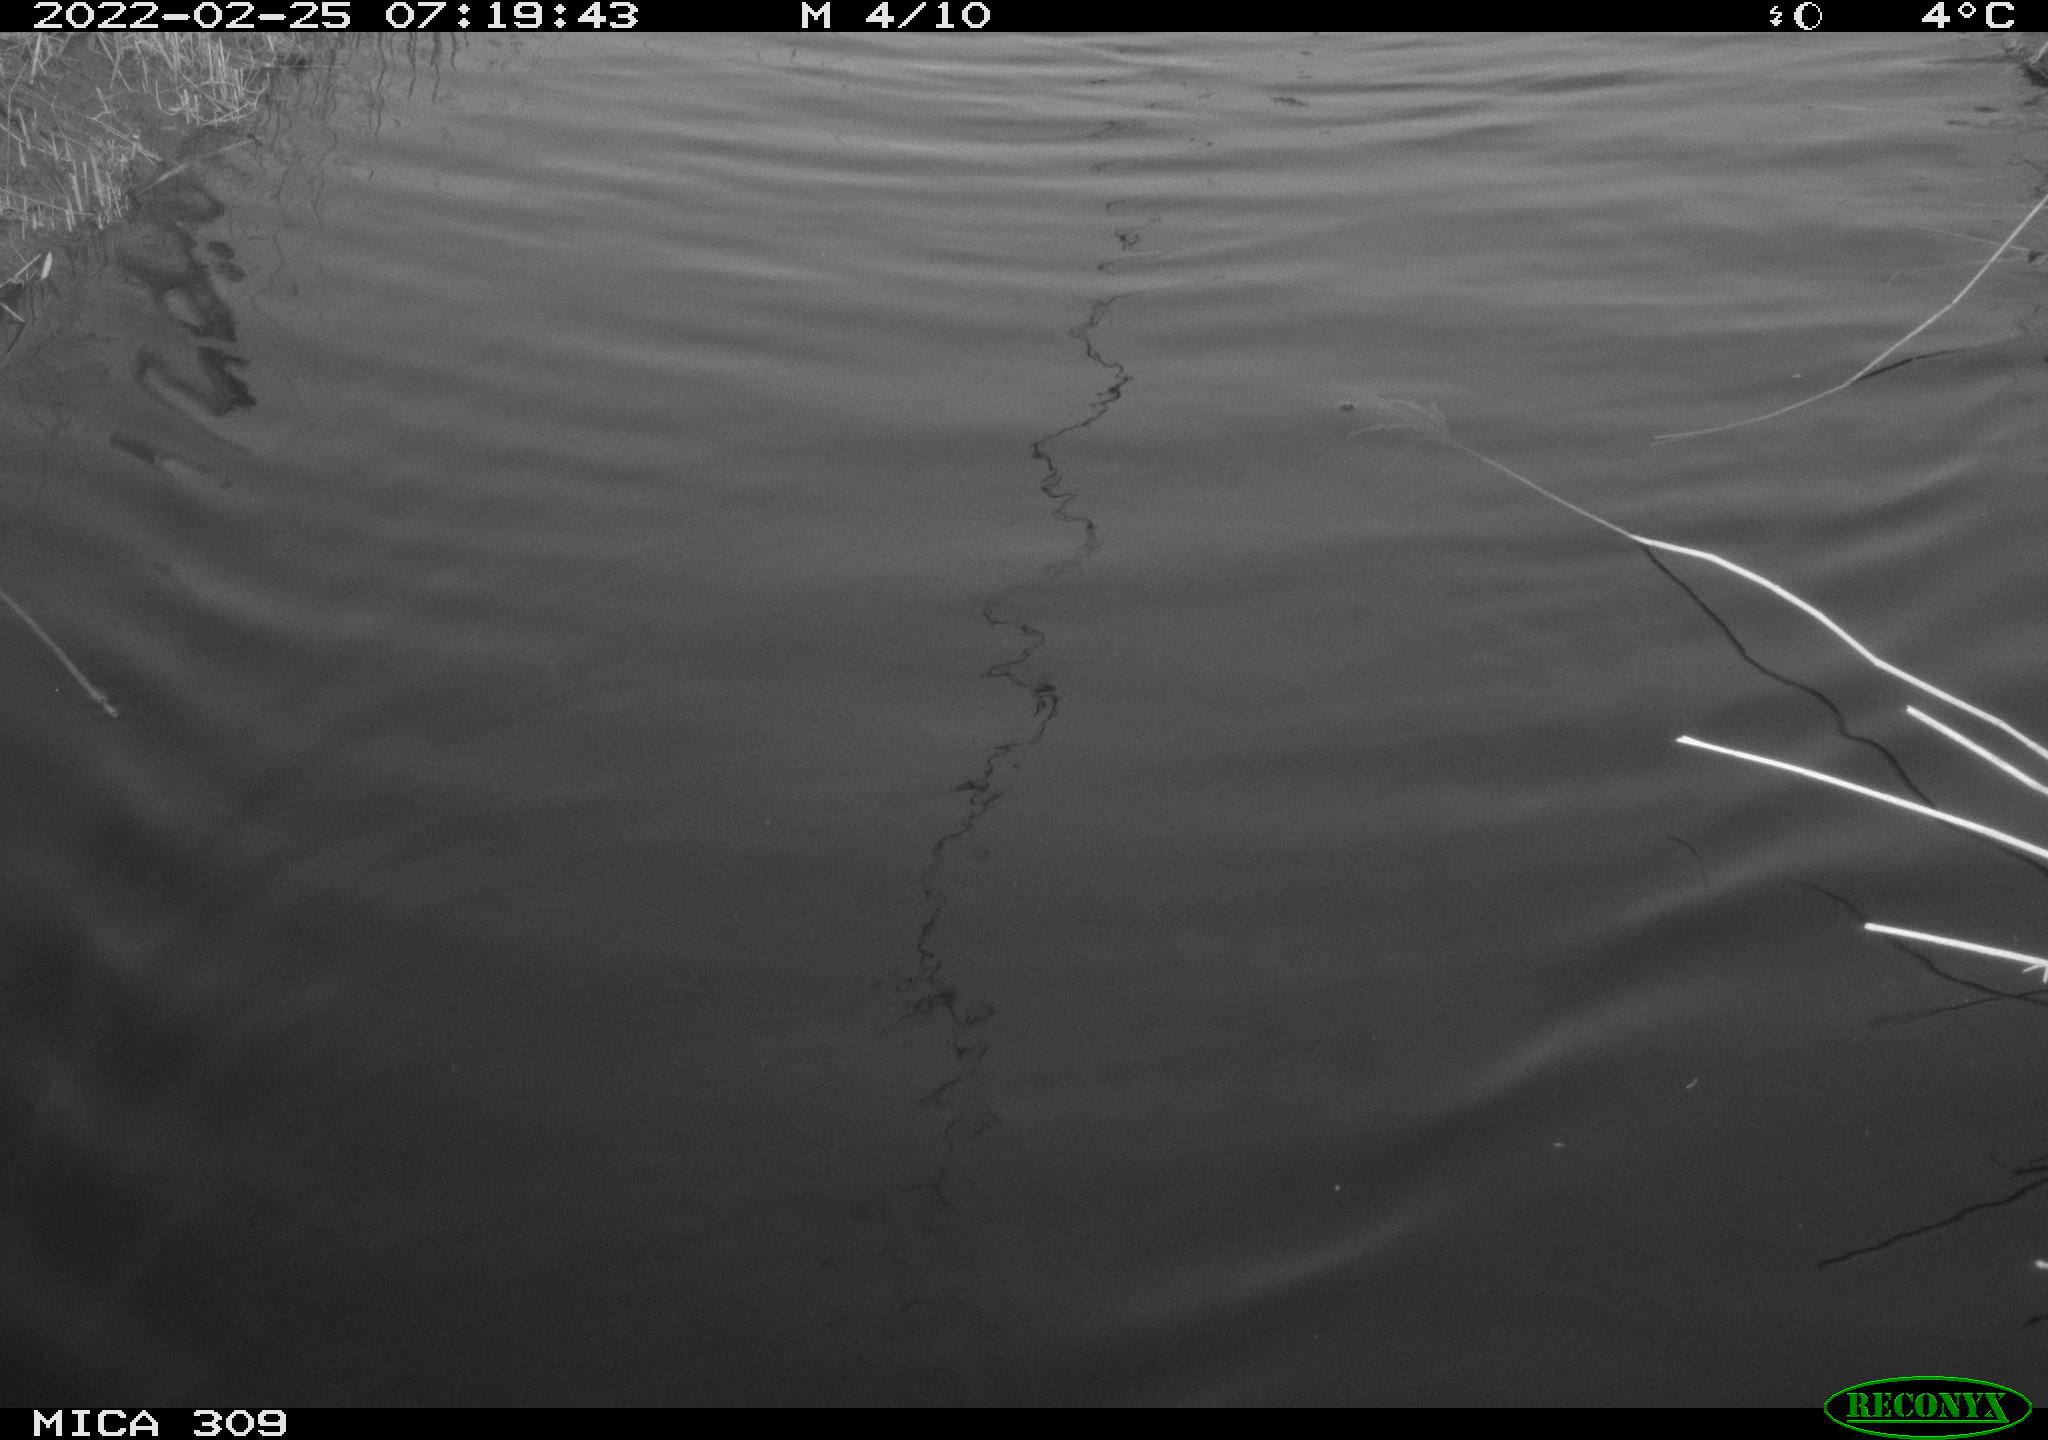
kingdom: Animalia
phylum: Chordata
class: Aves
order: Gruiformes
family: Rallidae
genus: Gallinula
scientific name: Gallinula chloropus
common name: Common moorhen
